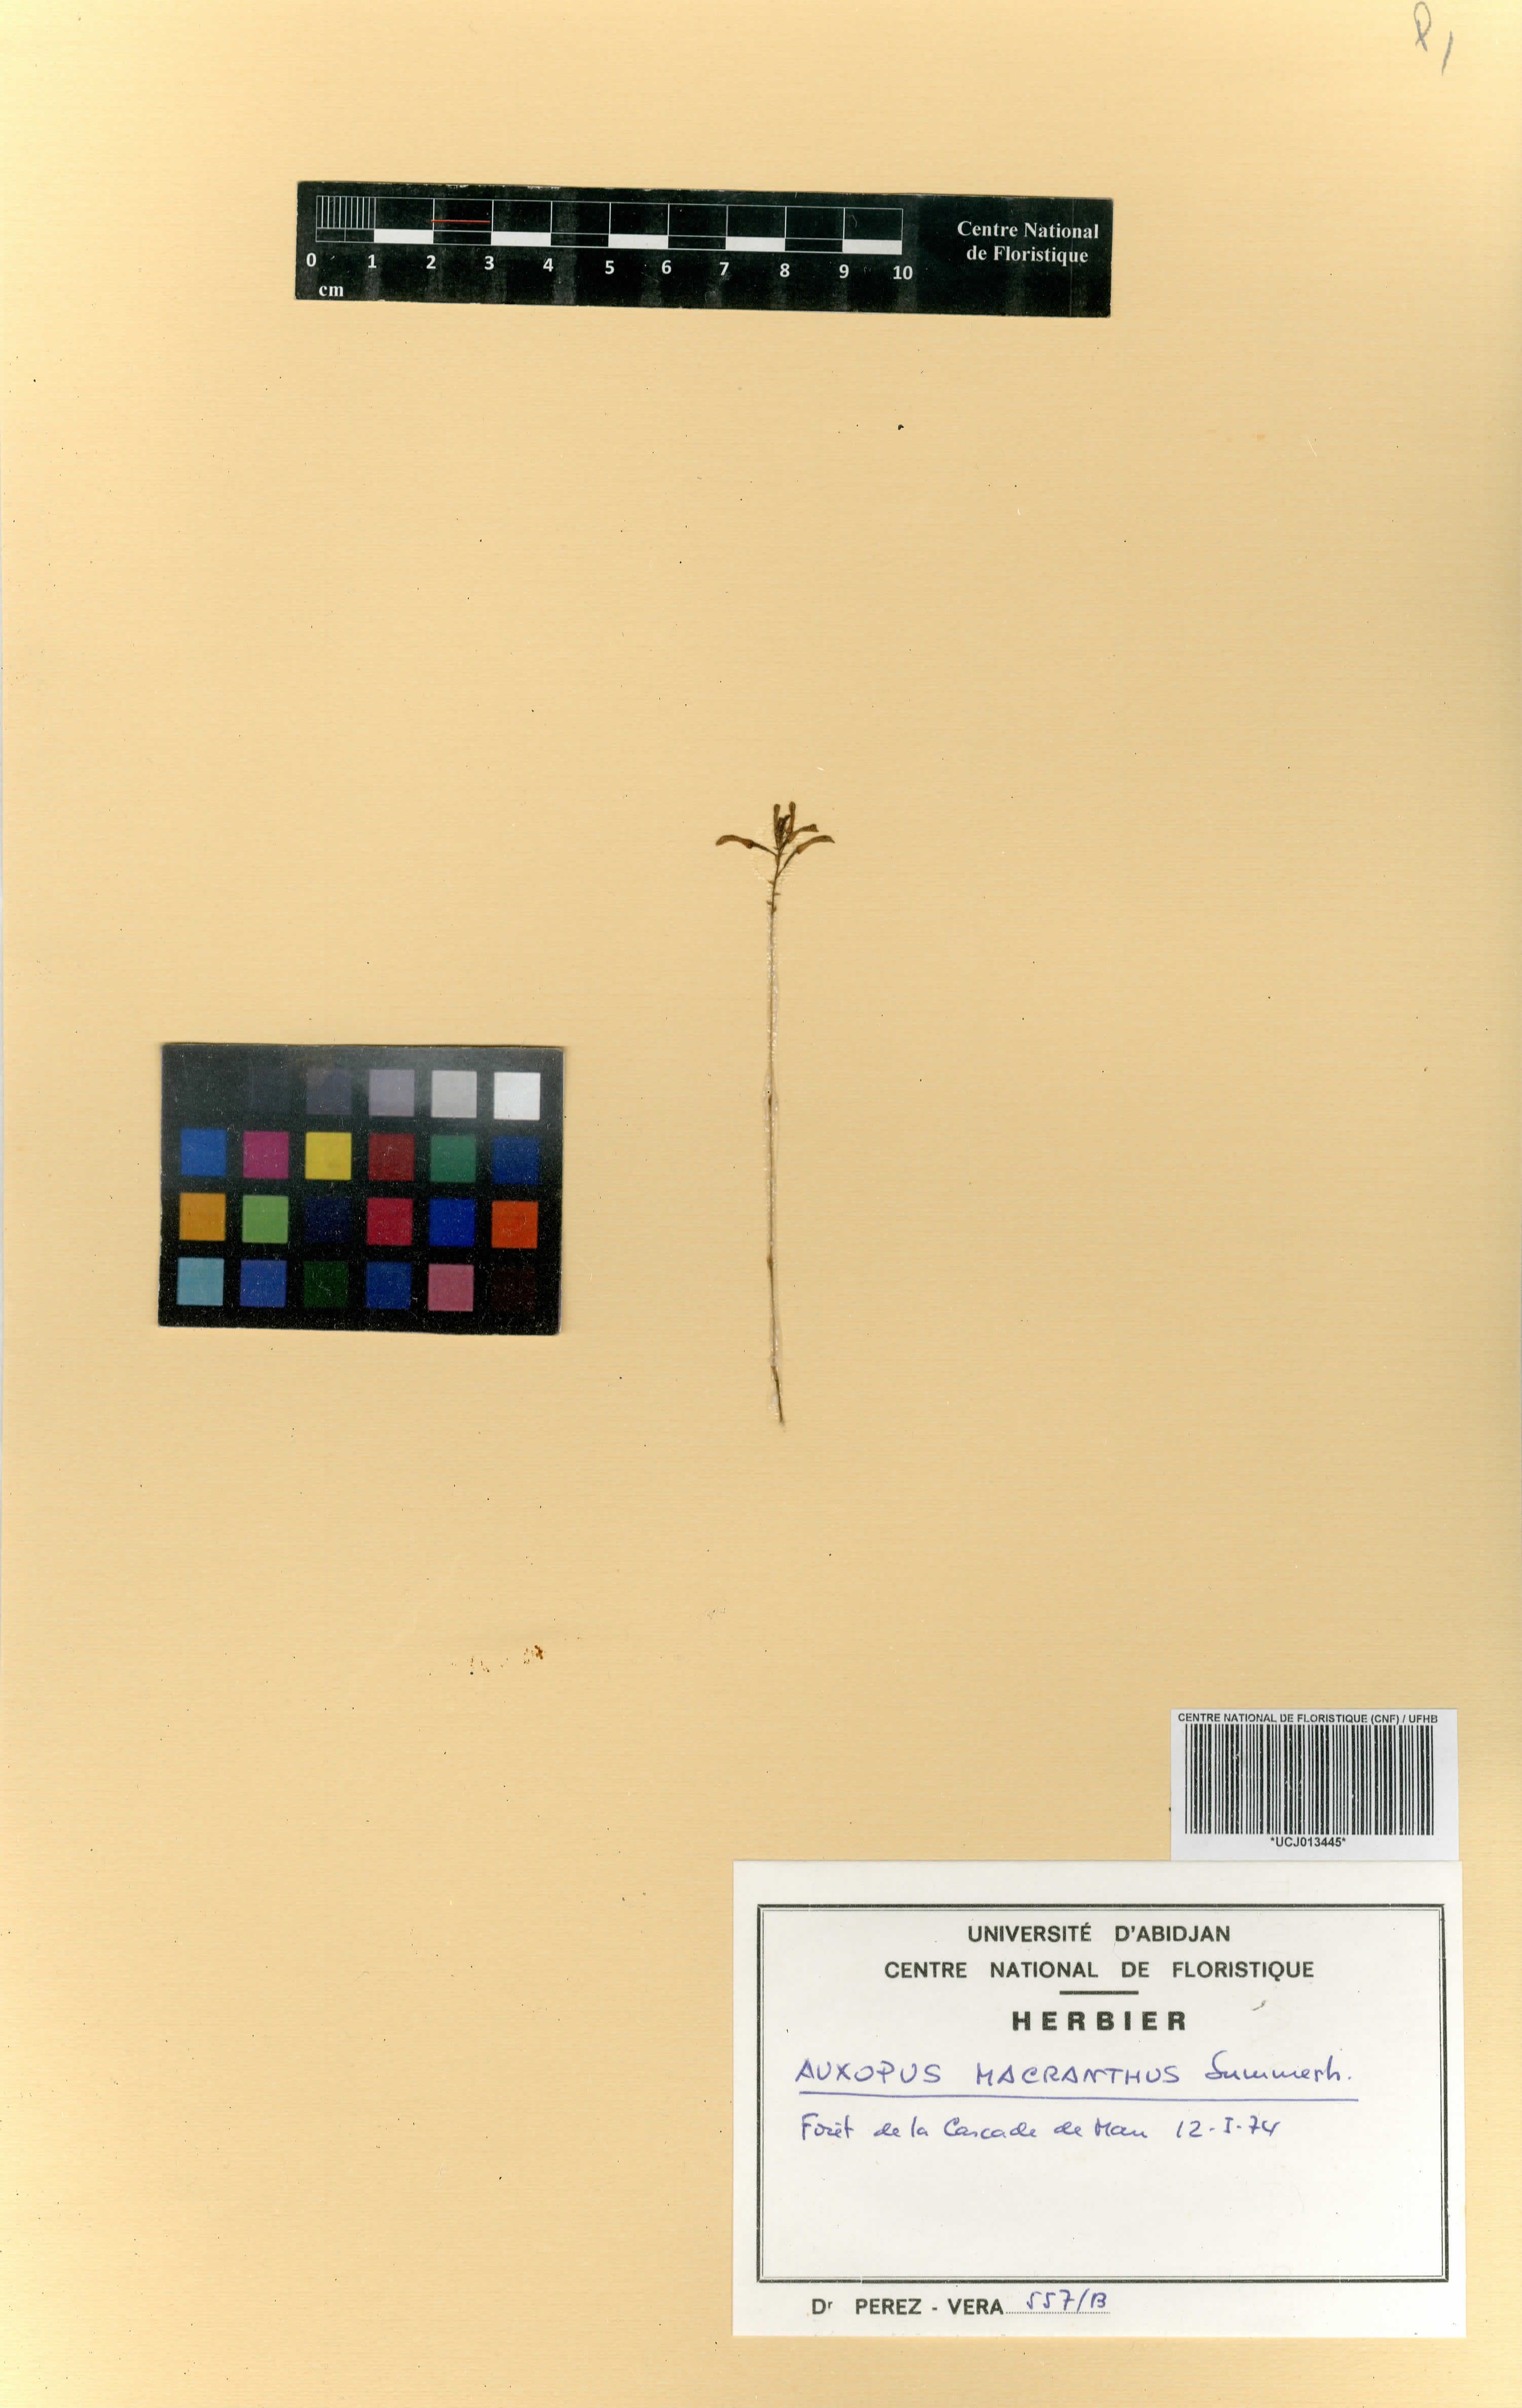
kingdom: Plantae
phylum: Tracheophyta
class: Liliopsida
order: Asparagales
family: Orchidaceae
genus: Auxopus
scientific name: Auxopus macranthus
